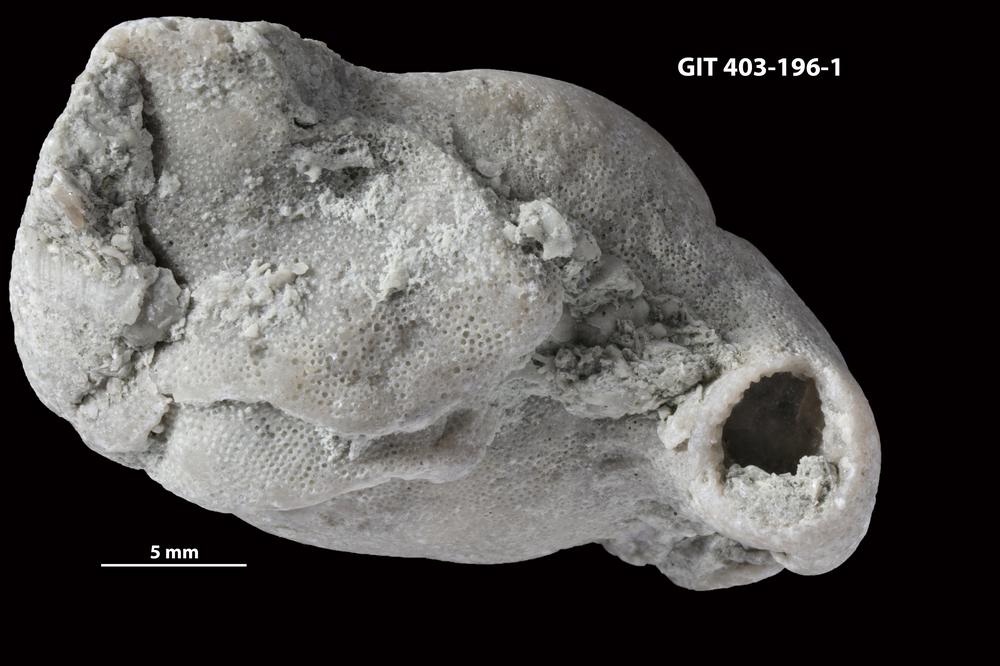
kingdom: Animalia
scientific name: Animalia
